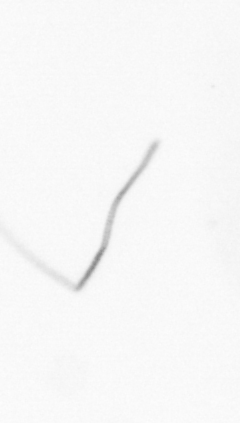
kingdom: Chromista
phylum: Ochrophyta
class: Bacillariophyceae
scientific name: Bacillariophyceae
